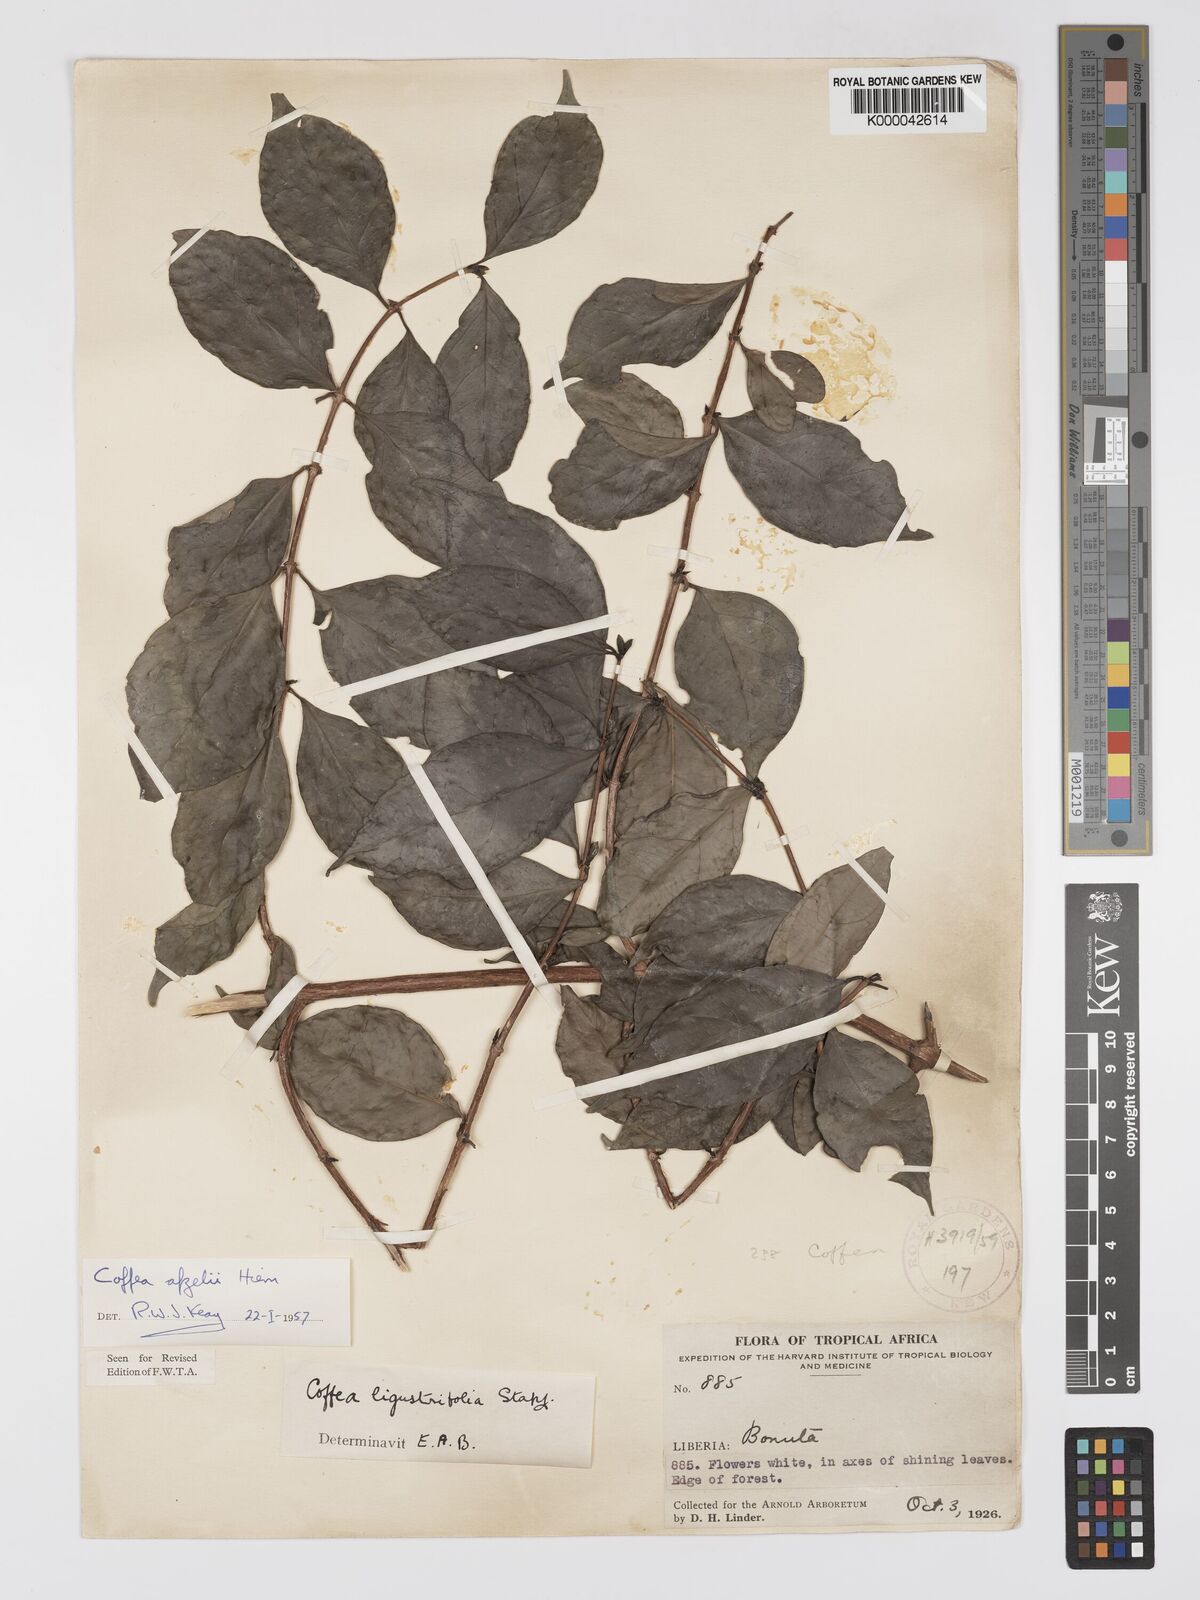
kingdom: Plantae
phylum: Tracheophyta
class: Magnoliopsida
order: Gentianales
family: Rubiaceae
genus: Argocoffeopsis
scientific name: Argocoffeopsis afzelii
